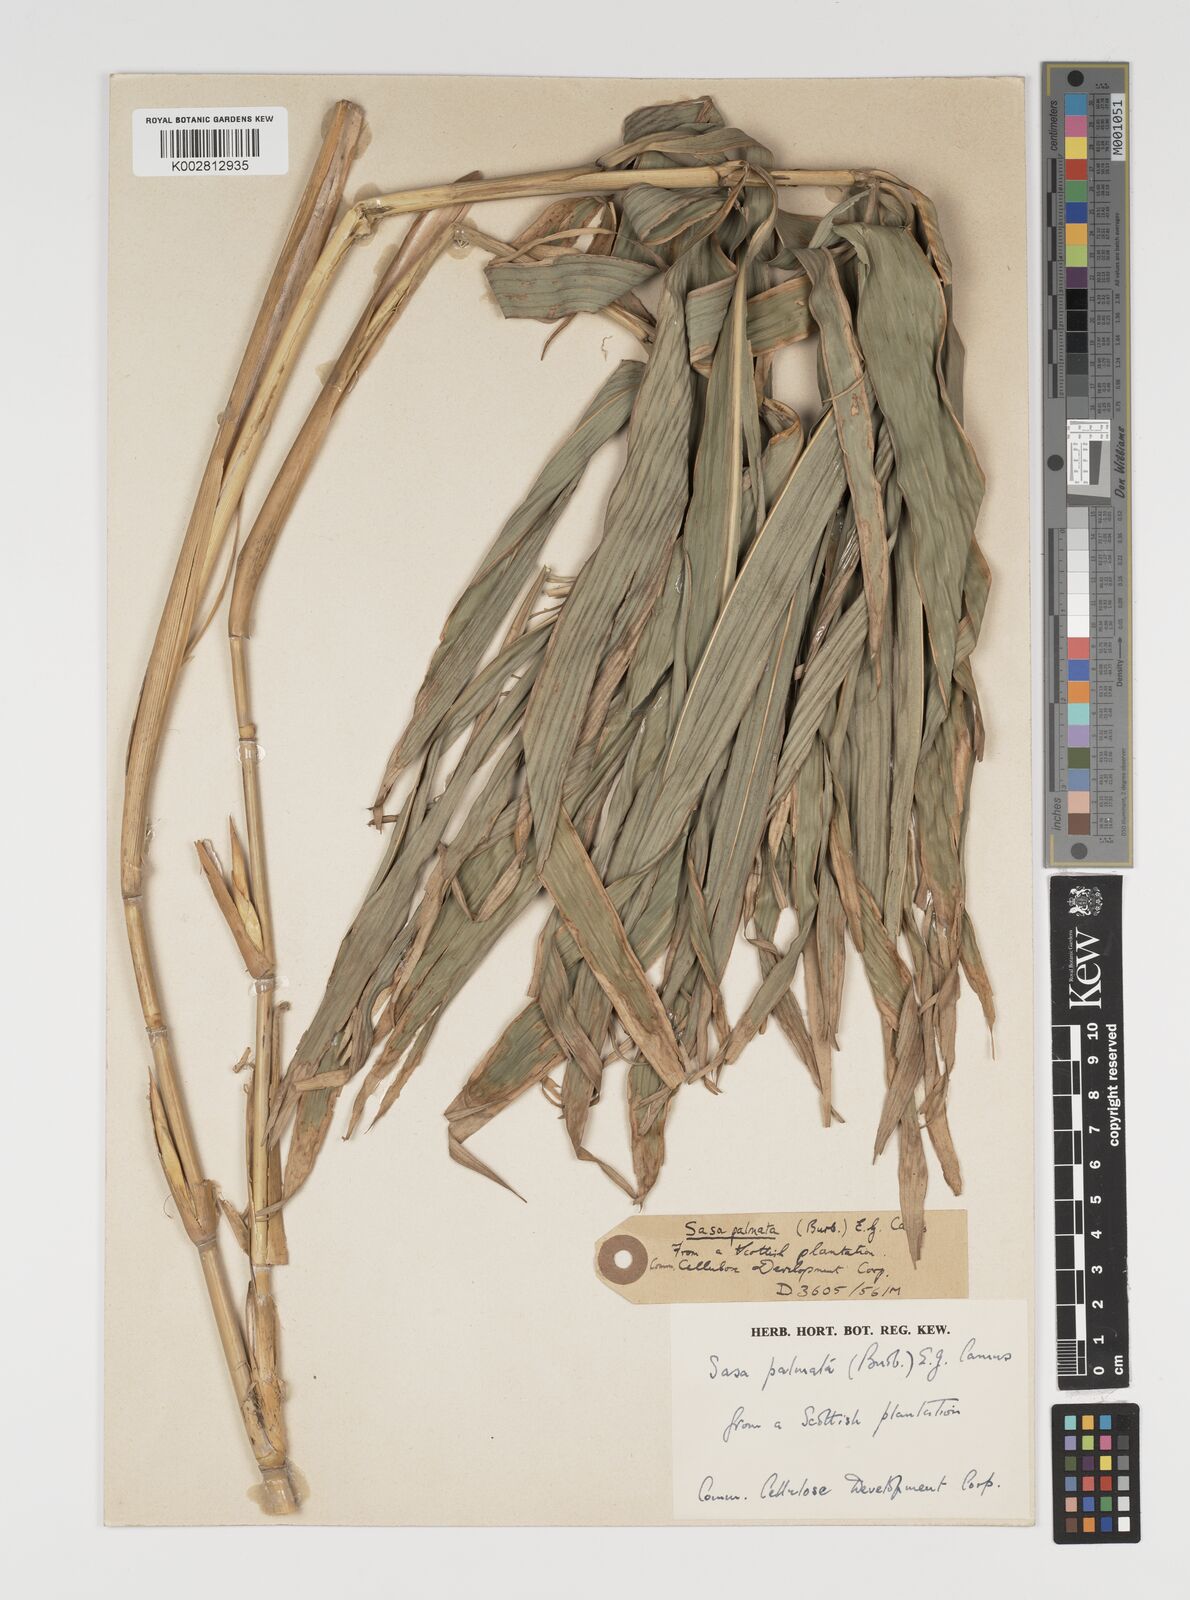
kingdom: Plantae
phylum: Tracheophyta
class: Liliopsida
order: Poales
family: Poaceae
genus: Sasa
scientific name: Sasa palmata
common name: Broad-leaved bamboo
